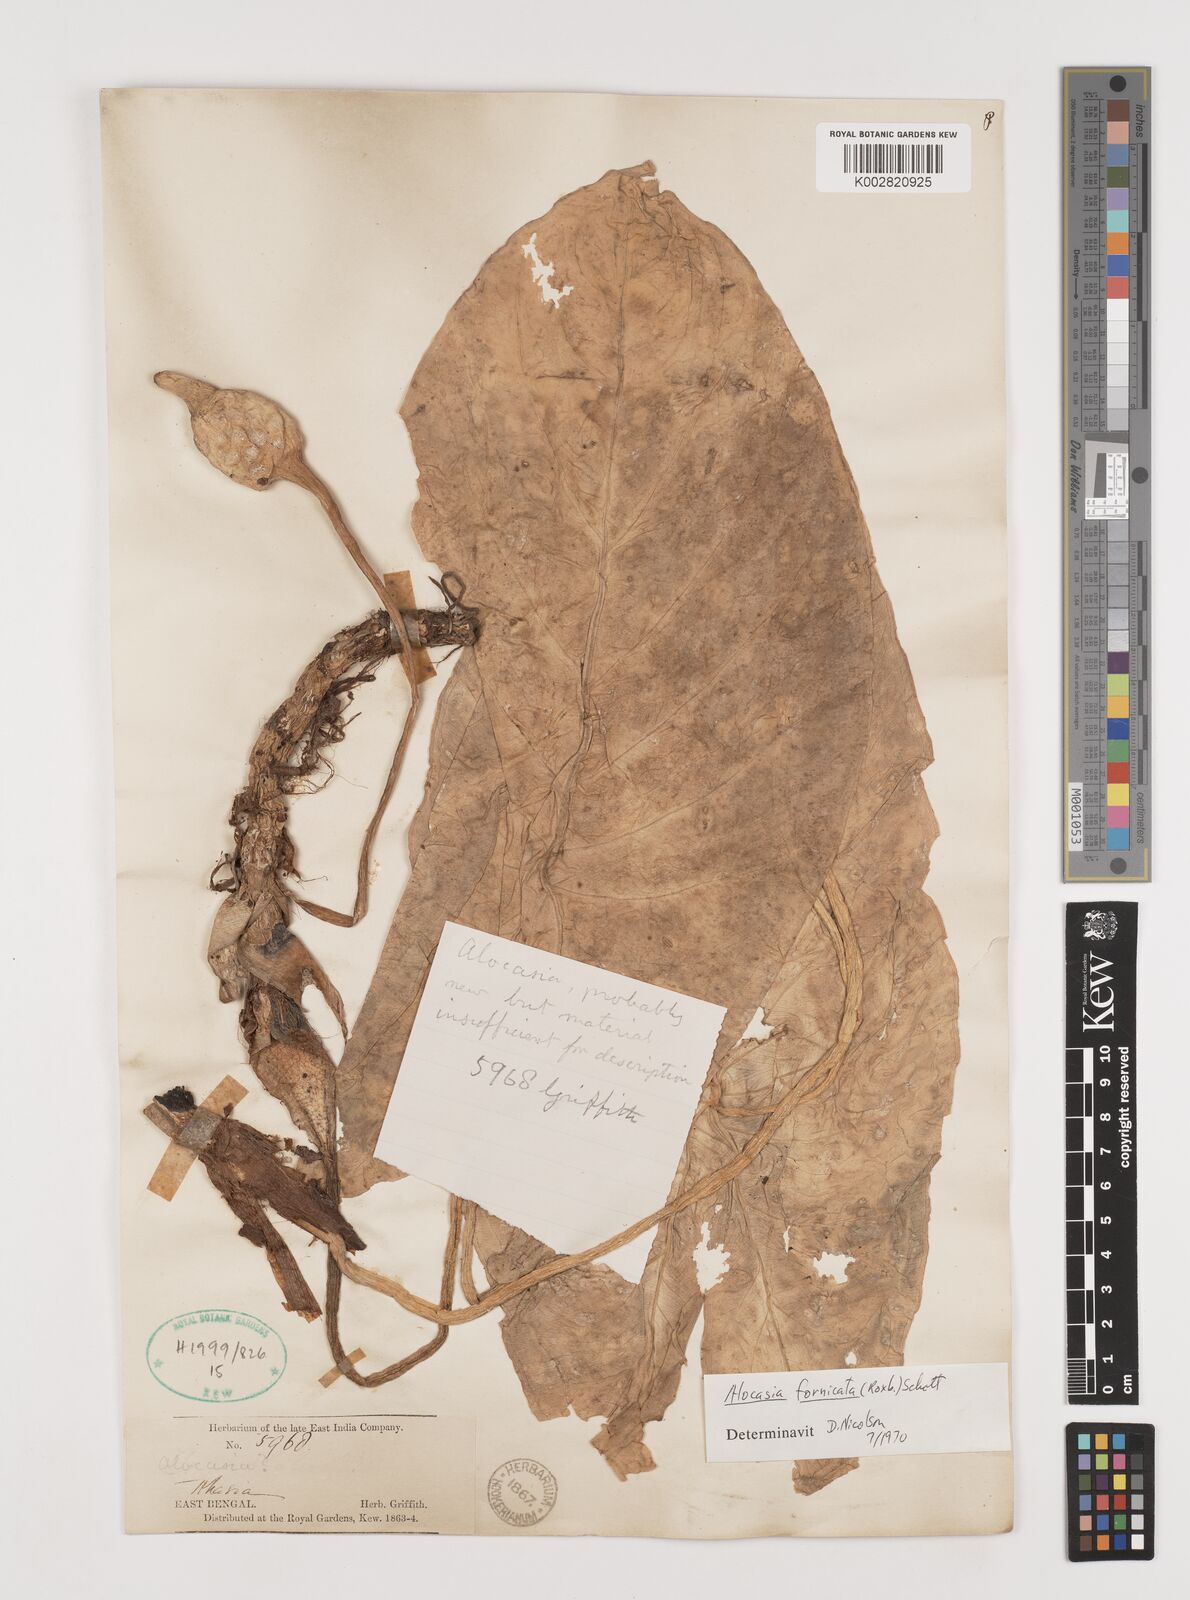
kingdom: Plantae
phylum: Tracheophyta
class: Liliopsida
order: Alismatales
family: Araceae
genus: Alocasia
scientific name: Alocasia fornicata
